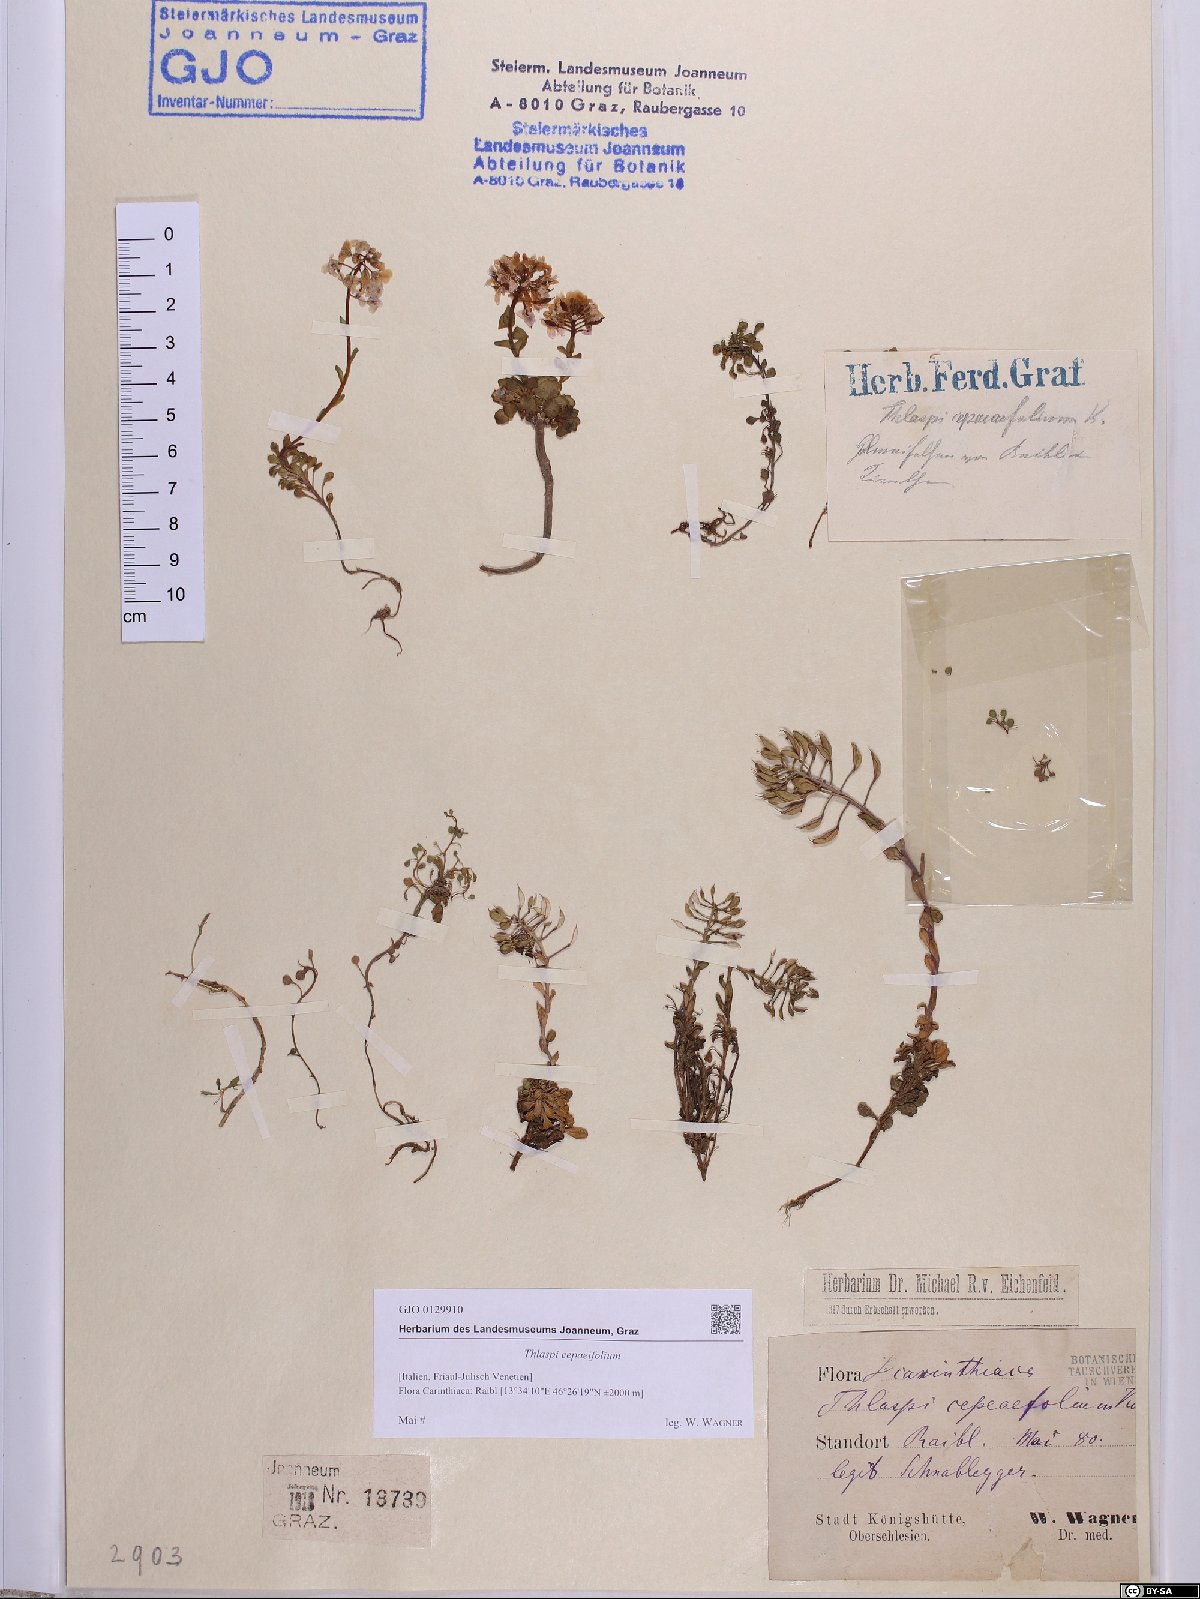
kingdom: Plantae
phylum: Tracheophyta
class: Magnoliopsida
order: Brassicales
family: Brassicaceae
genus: Noccaea
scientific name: Noccaea cepaeifolia
